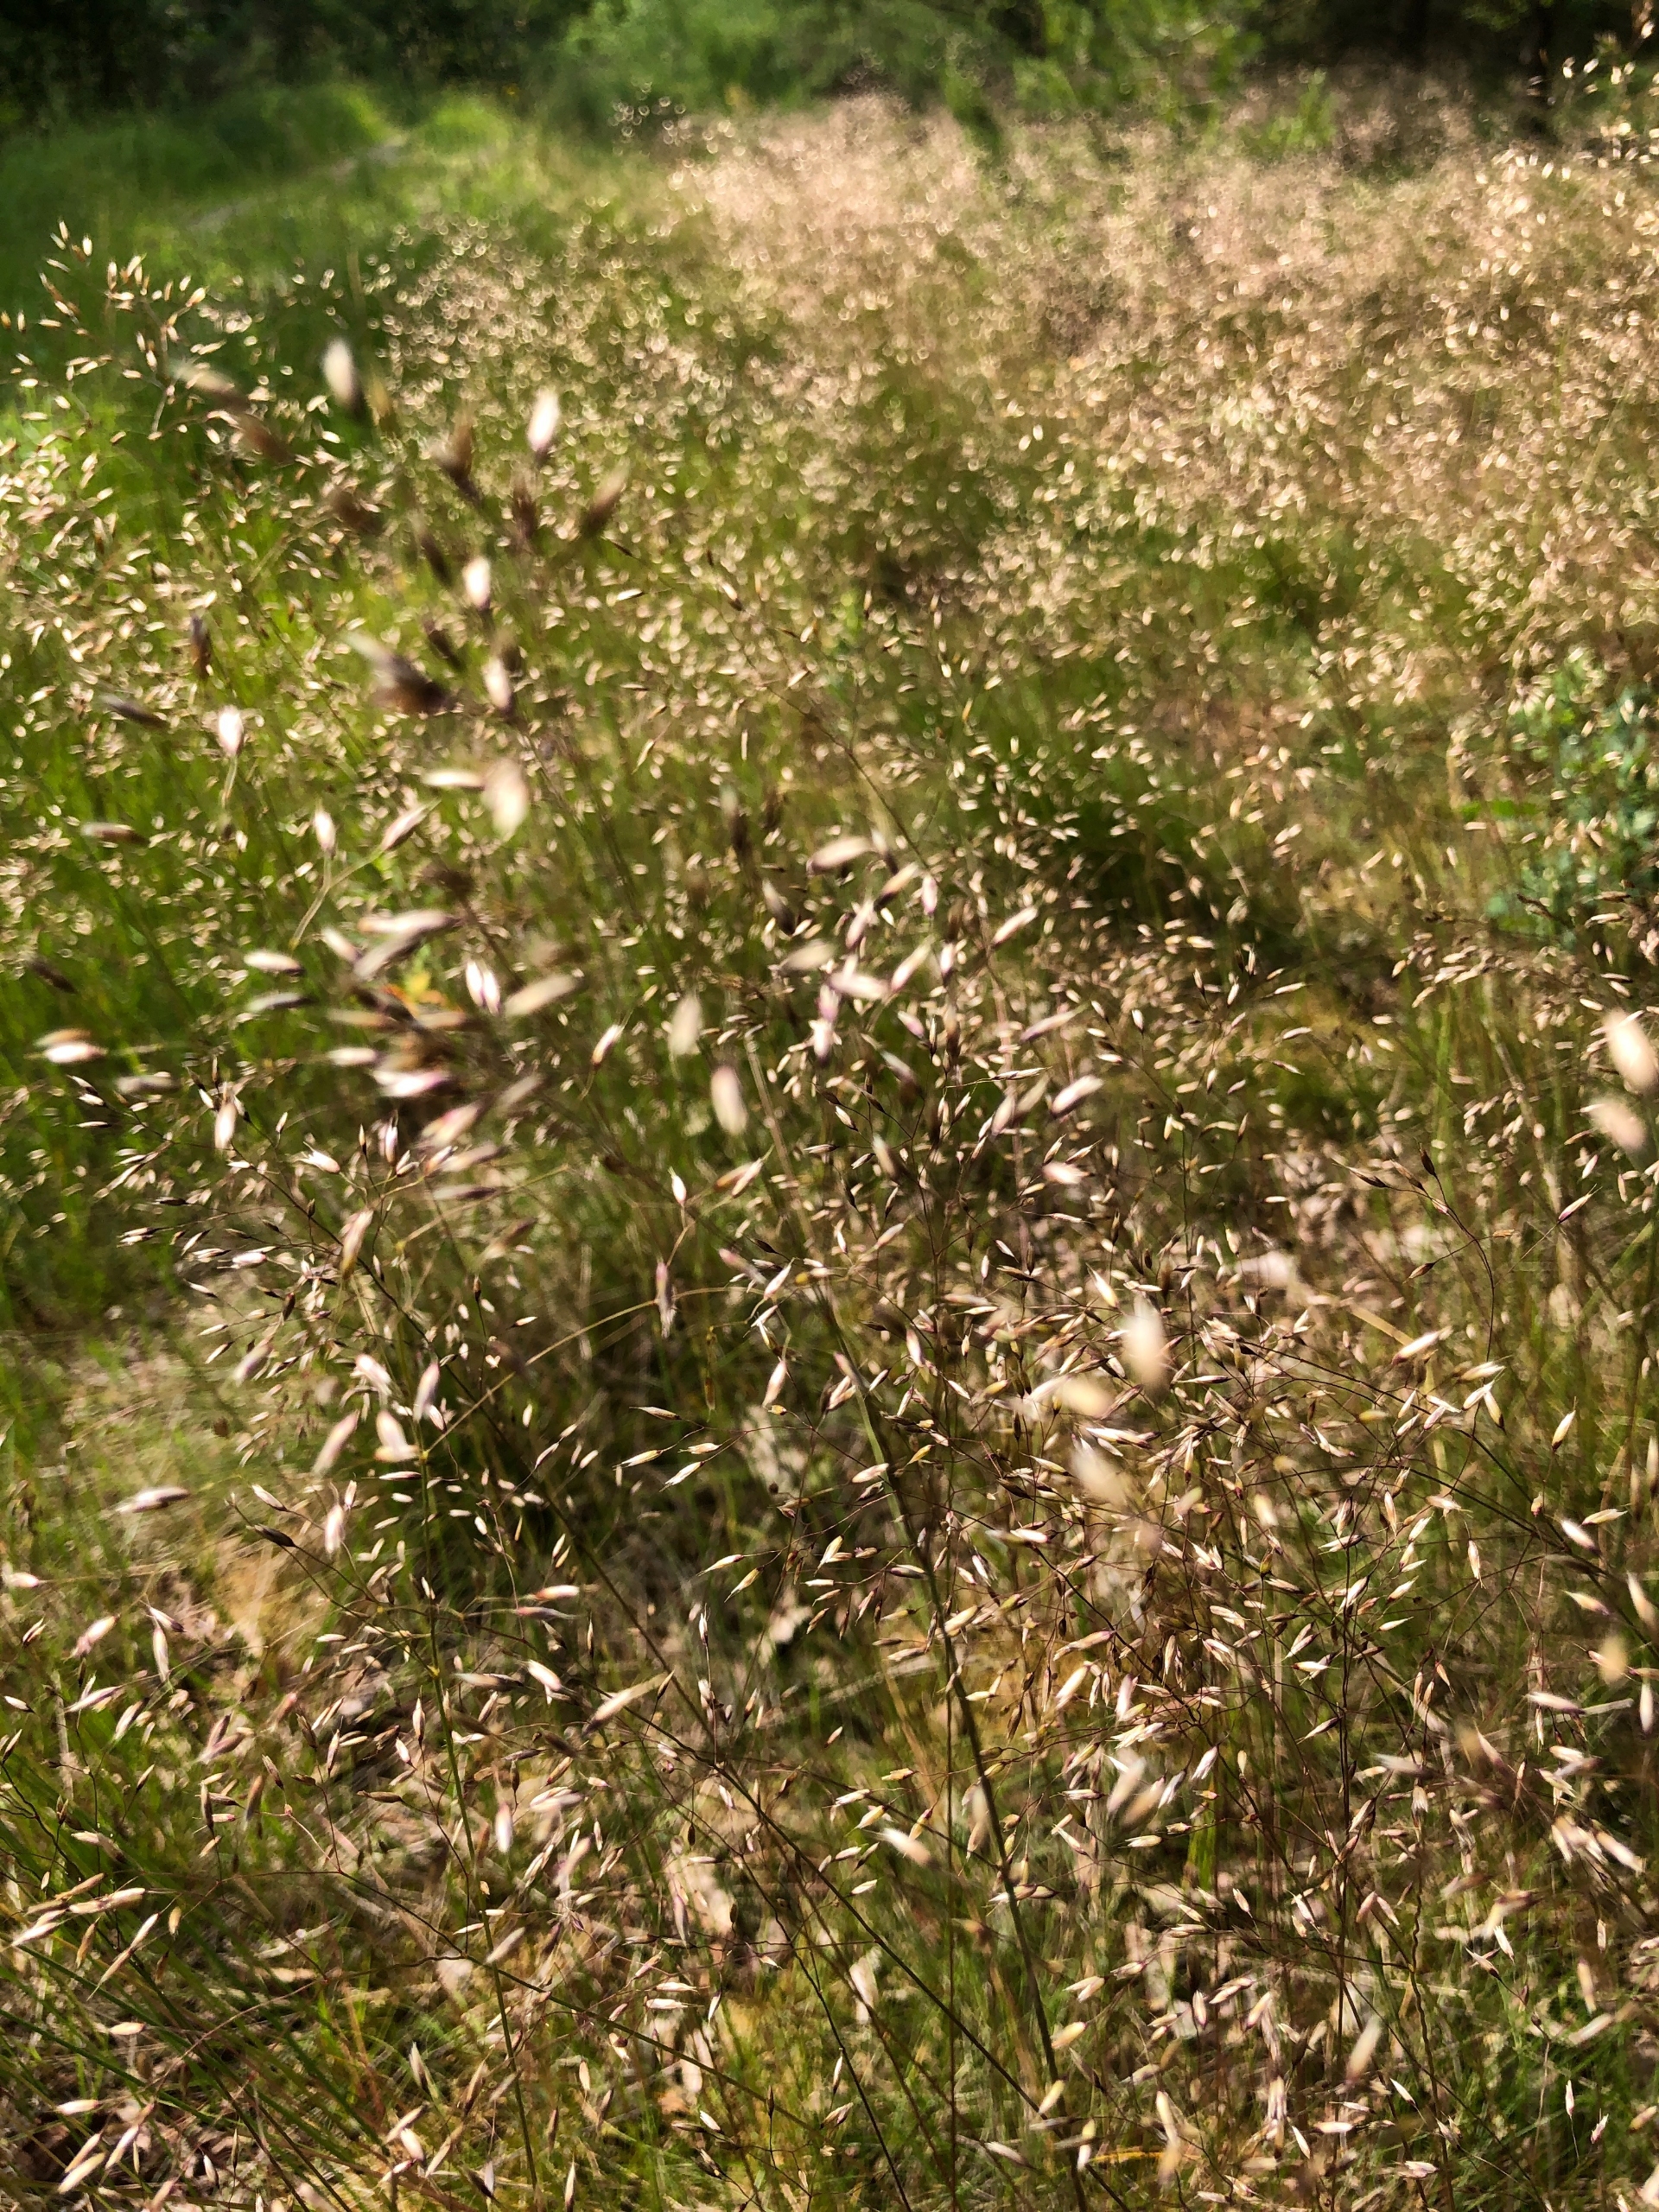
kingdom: Plantae
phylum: Tracheophyta
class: Liliopsida
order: Poales
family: Poaceae
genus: Avenella
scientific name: Avenella flexuosa
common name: Bølget bunke
